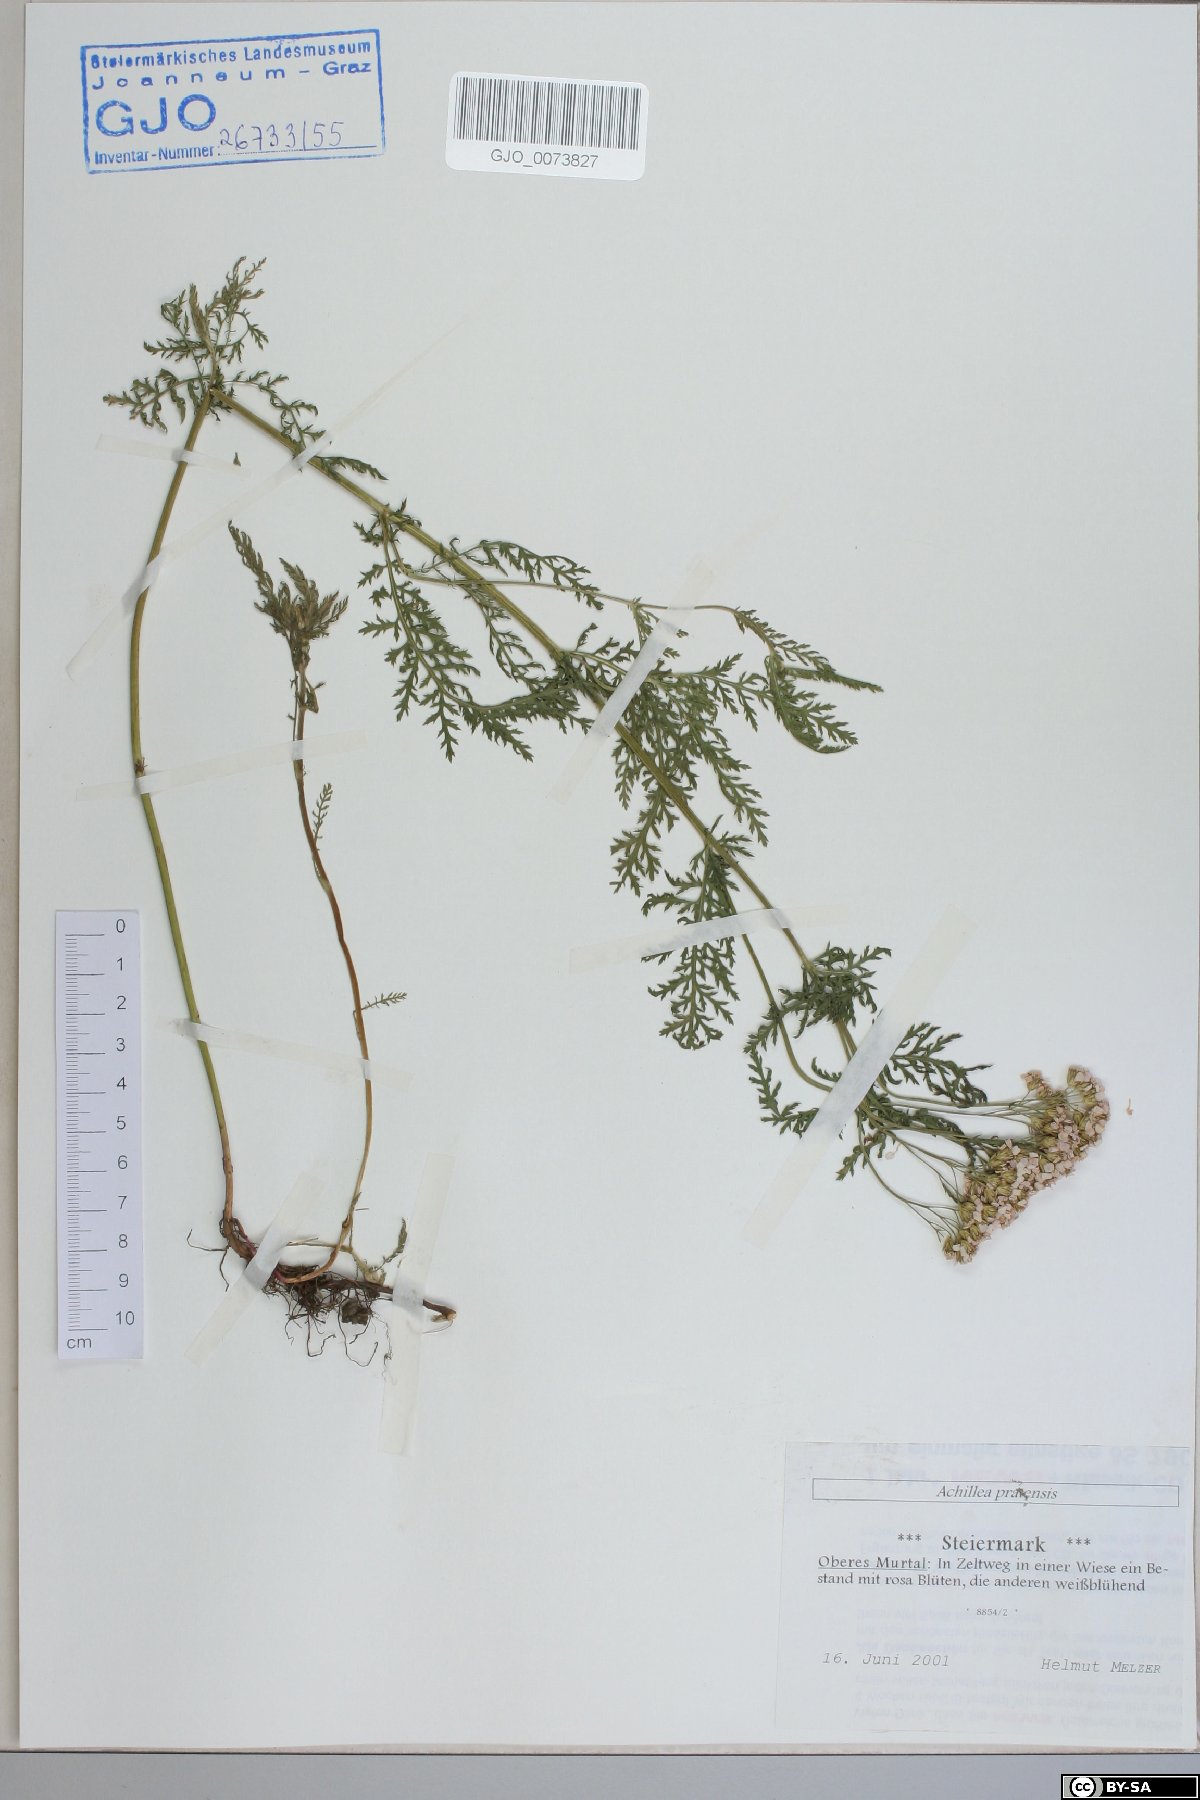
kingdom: Plantae
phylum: Tracheophyta
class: Magnoliopsida
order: Asterales
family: Asteraceae
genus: Achillea
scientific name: Achillea pratensis
